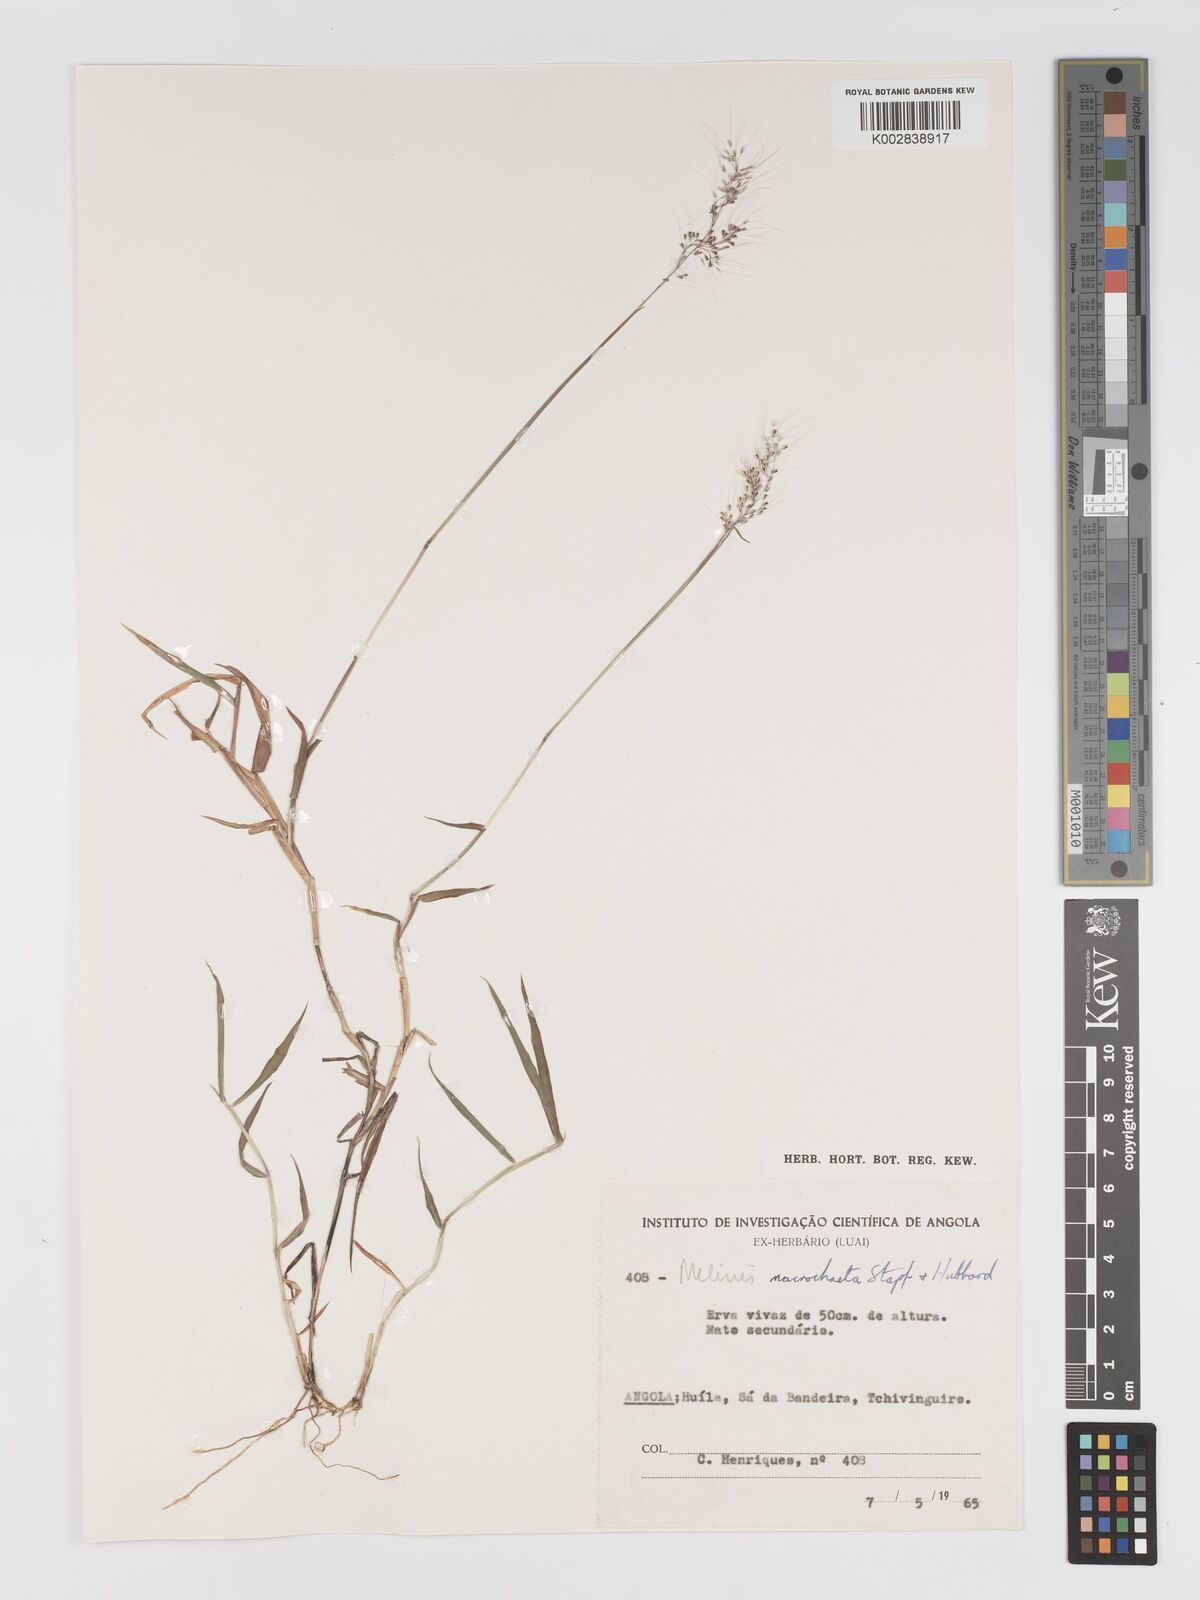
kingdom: Plantae
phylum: Tracheophyta
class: Liliopsida
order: Poales
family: Poaceae
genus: Melinis
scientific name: Melinis macrochaeta
